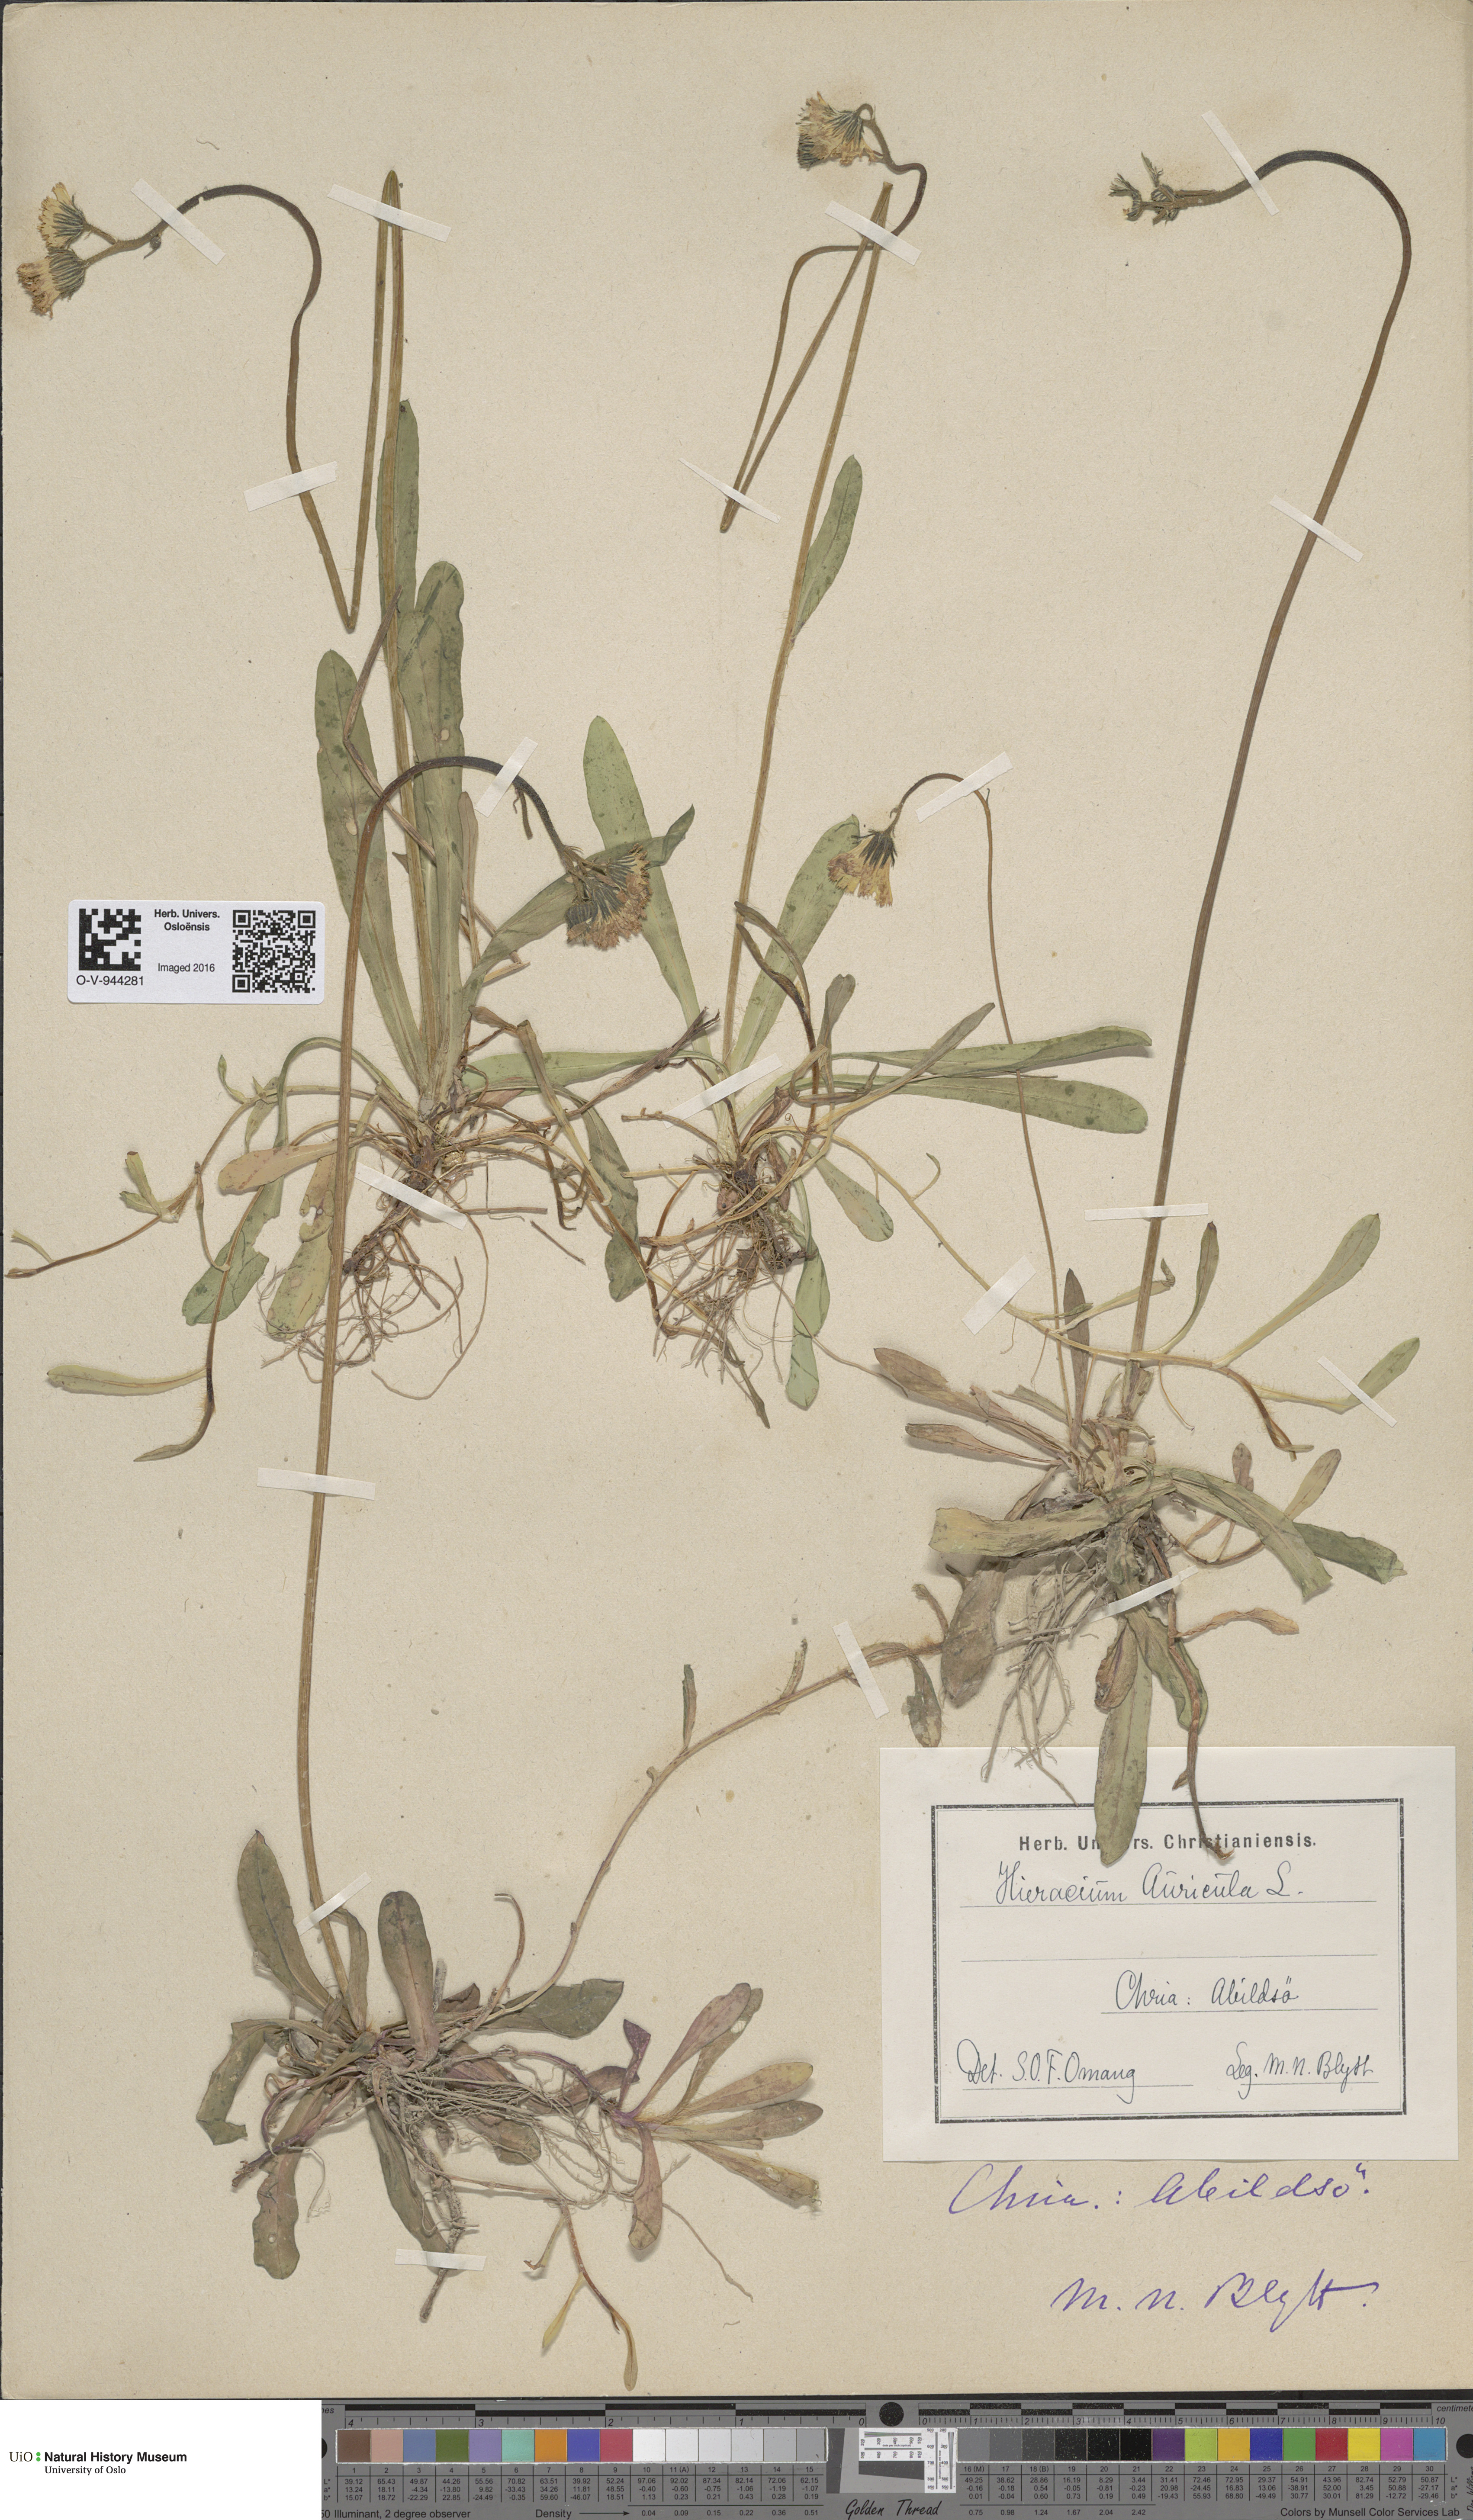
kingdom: Plantae
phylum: Tracheophyta
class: Magnoliopsida
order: Asterales
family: Asteraceae
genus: Pilosella
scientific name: Pilosella lactucella
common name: Glaucous fox-and-cubs
